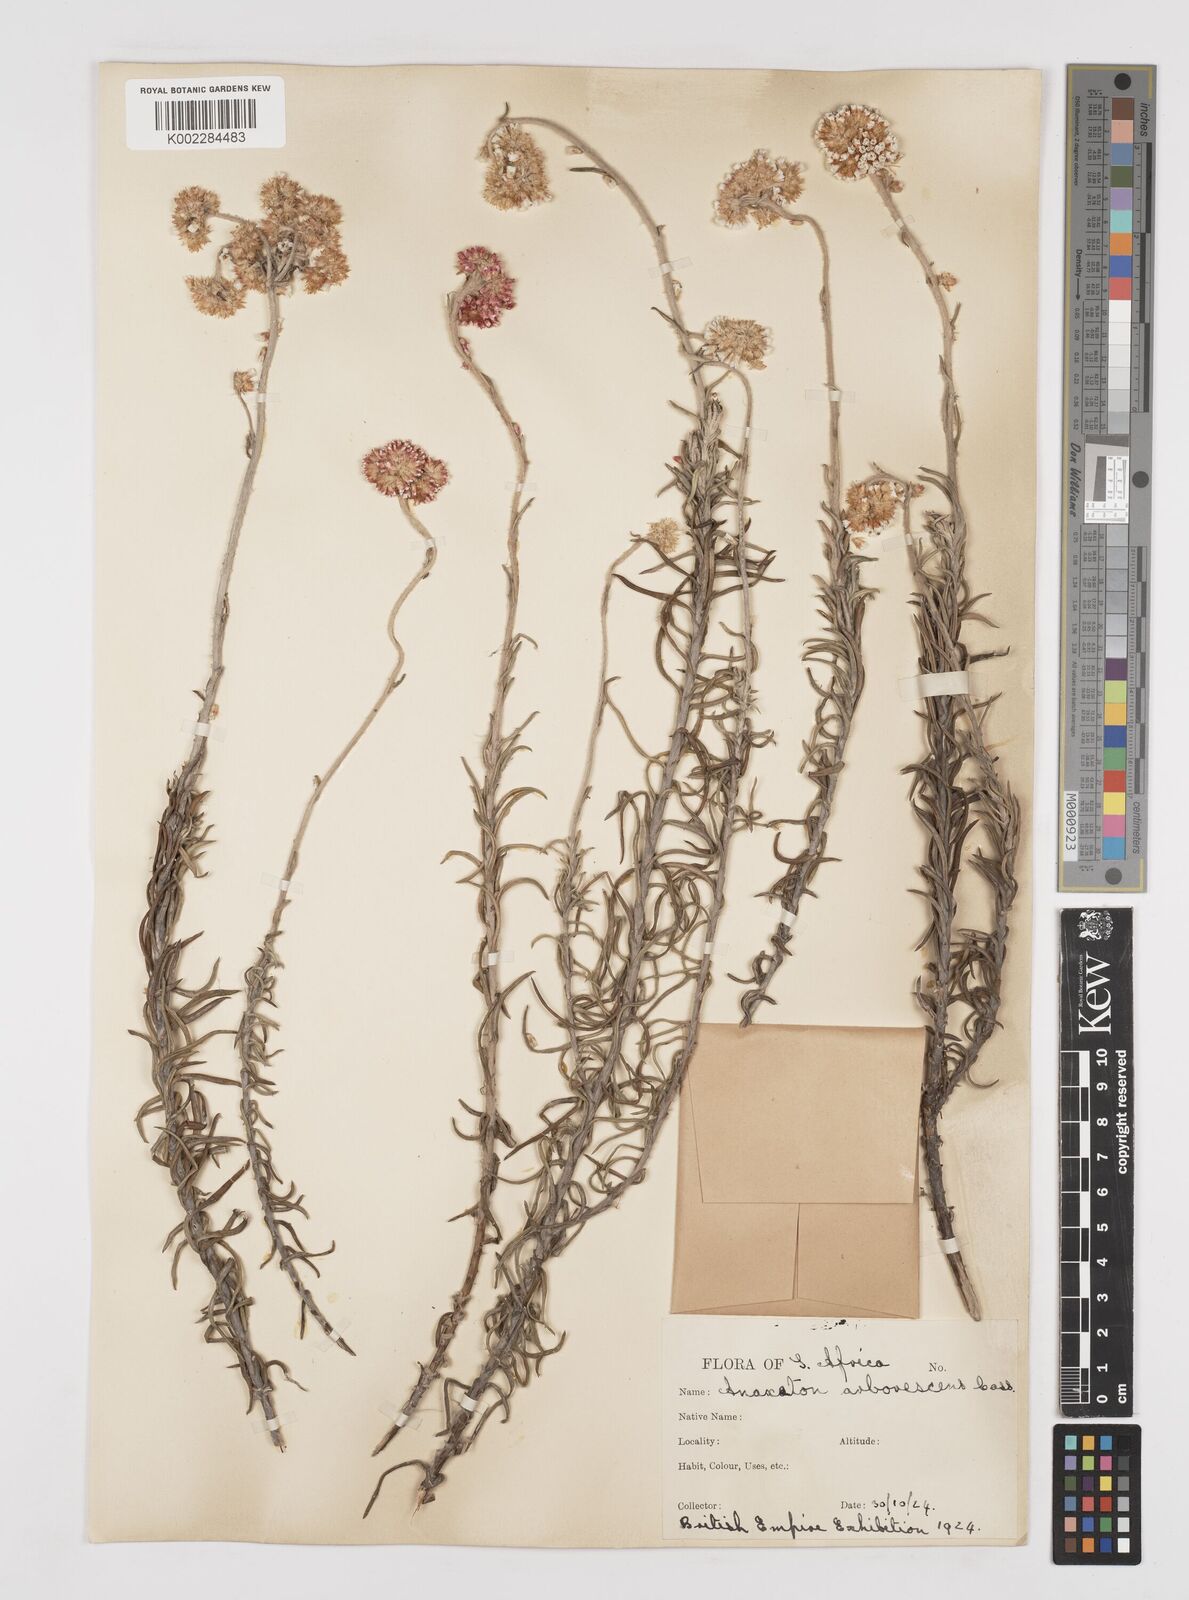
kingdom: Plantae
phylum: Tracheophyta
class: Magnoliopsida
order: Asterales
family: Asteraceae
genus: Anaxeton
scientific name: Anaxeton arborescens
